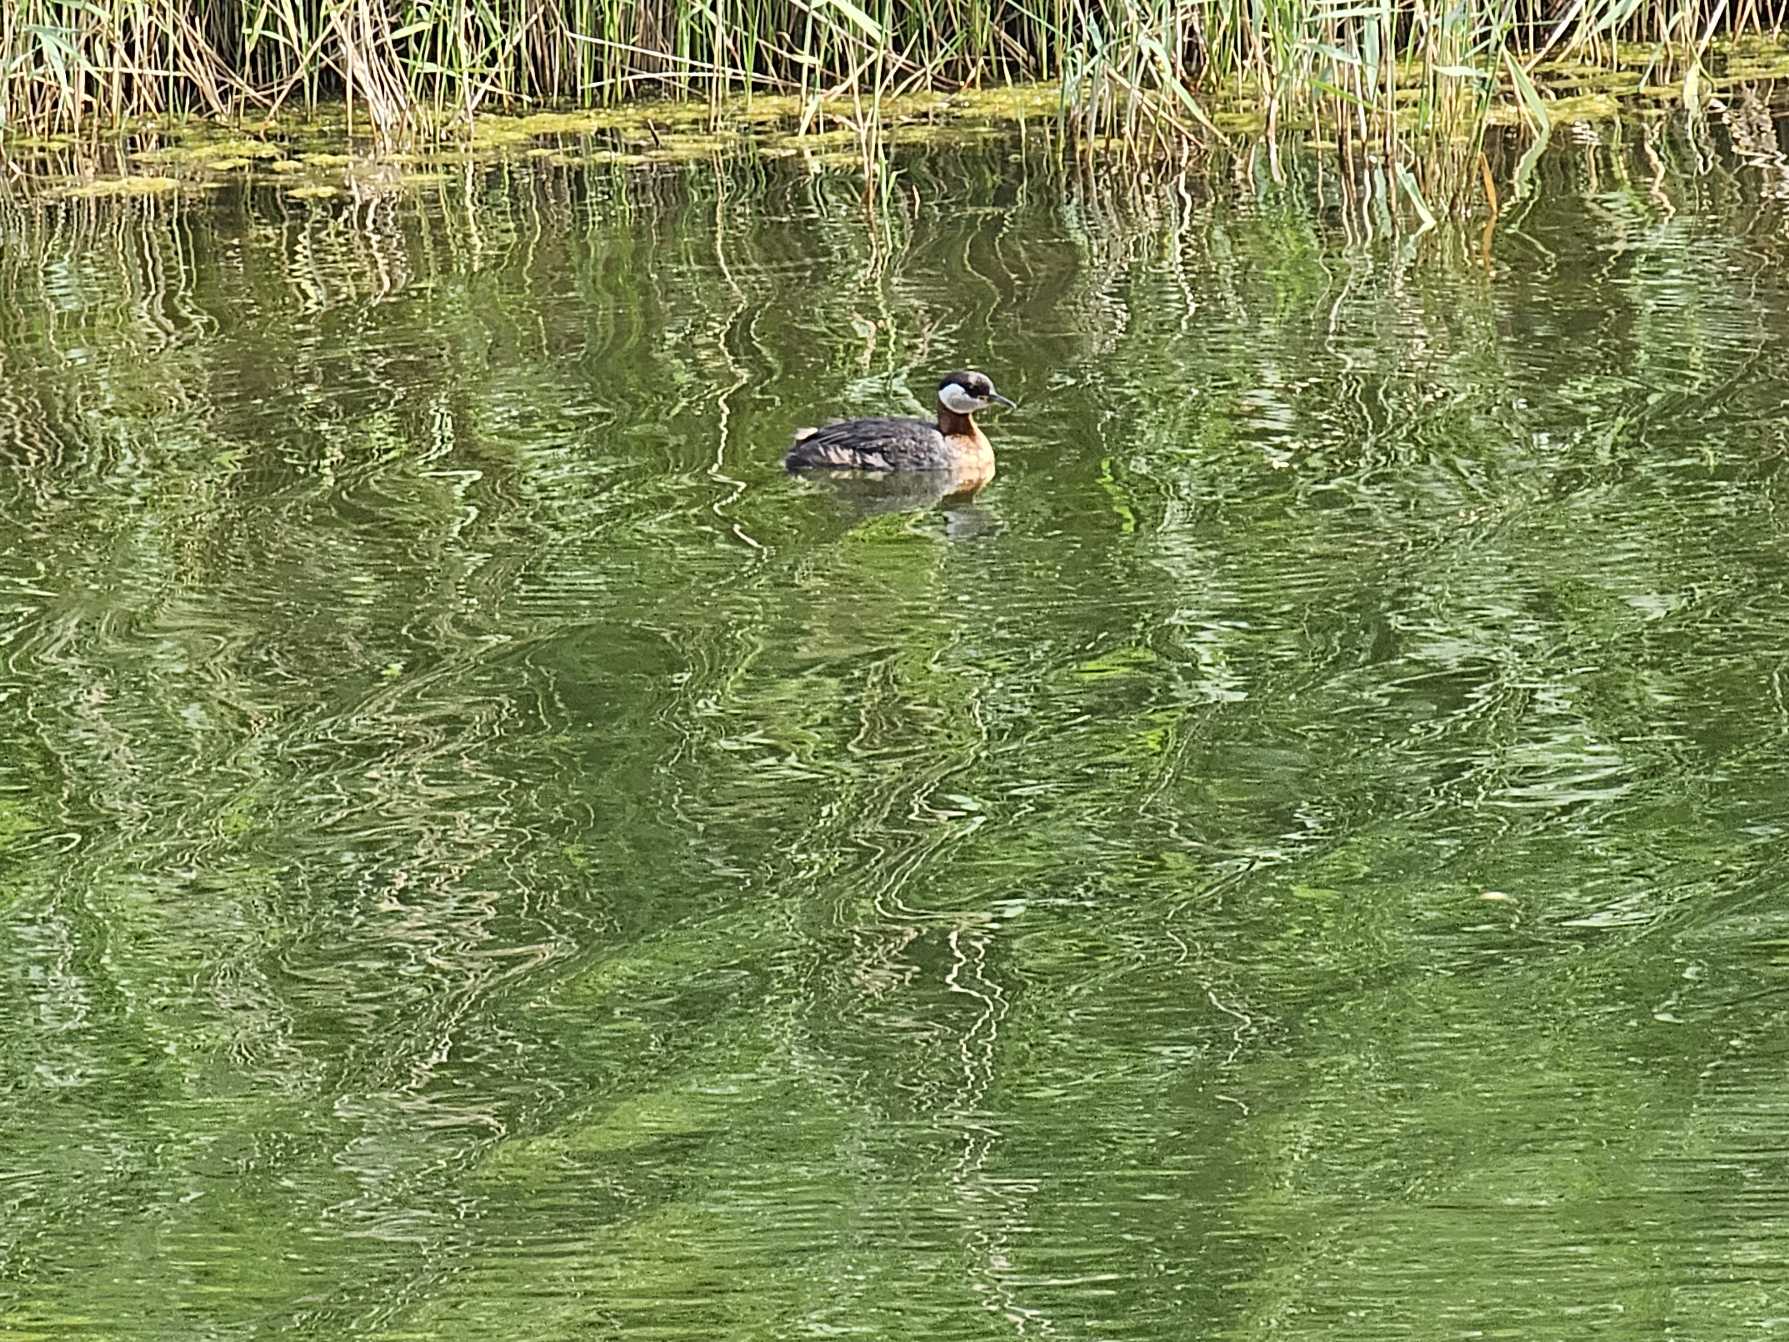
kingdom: Animalia
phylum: Chordata
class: Aves
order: Podicipediformes
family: Podicipedidae
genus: Podiceps
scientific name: Podiceps grisegena
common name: Gråstrubet lappedykker
